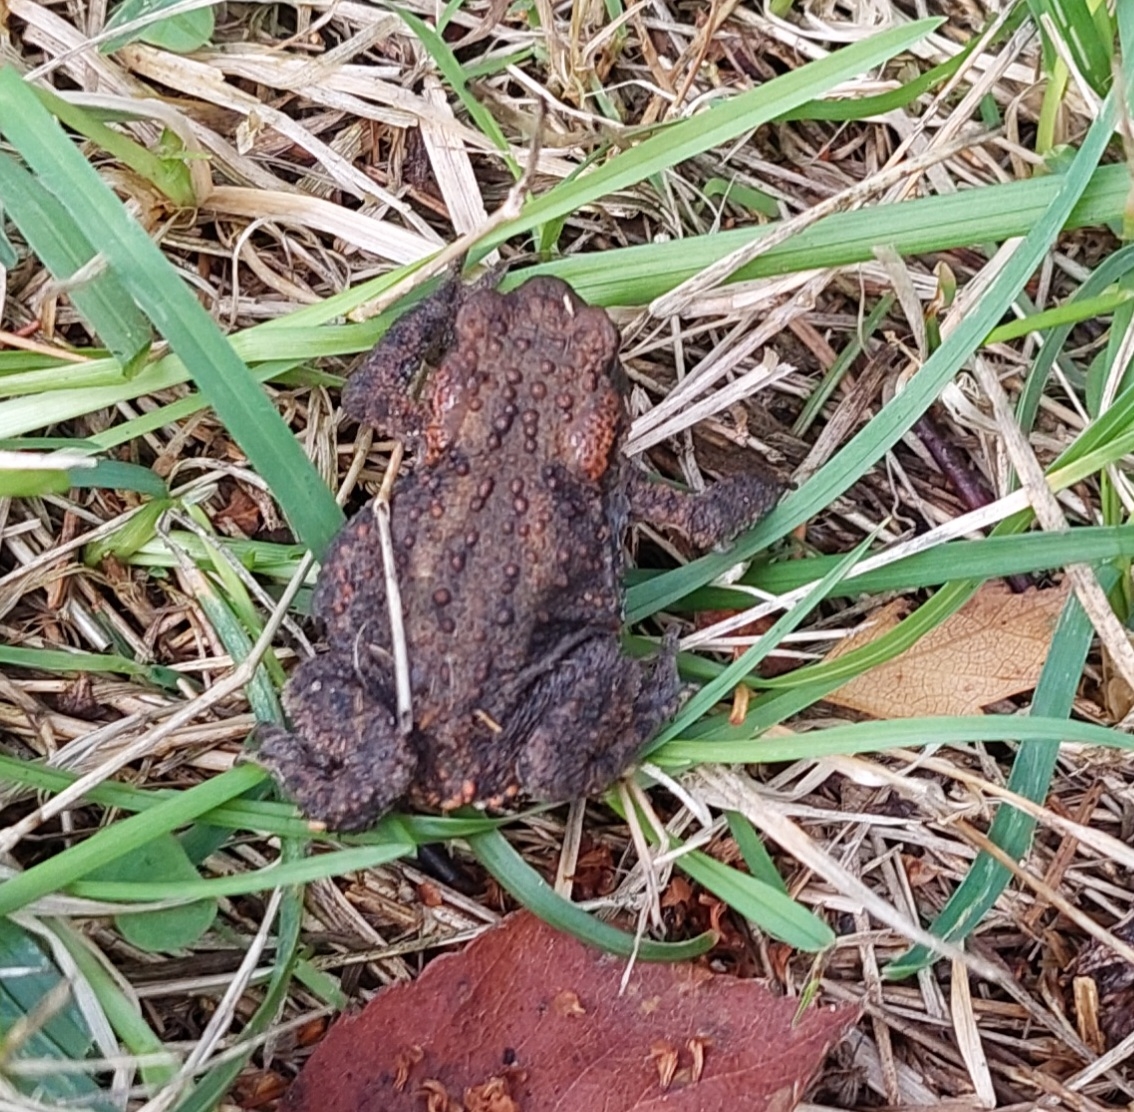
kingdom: Animalia
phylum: Chordata
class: Amphibia
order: Anura
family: Bufonidae
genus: Bufo
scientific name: Bufo bufo
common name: Skrubtudse
